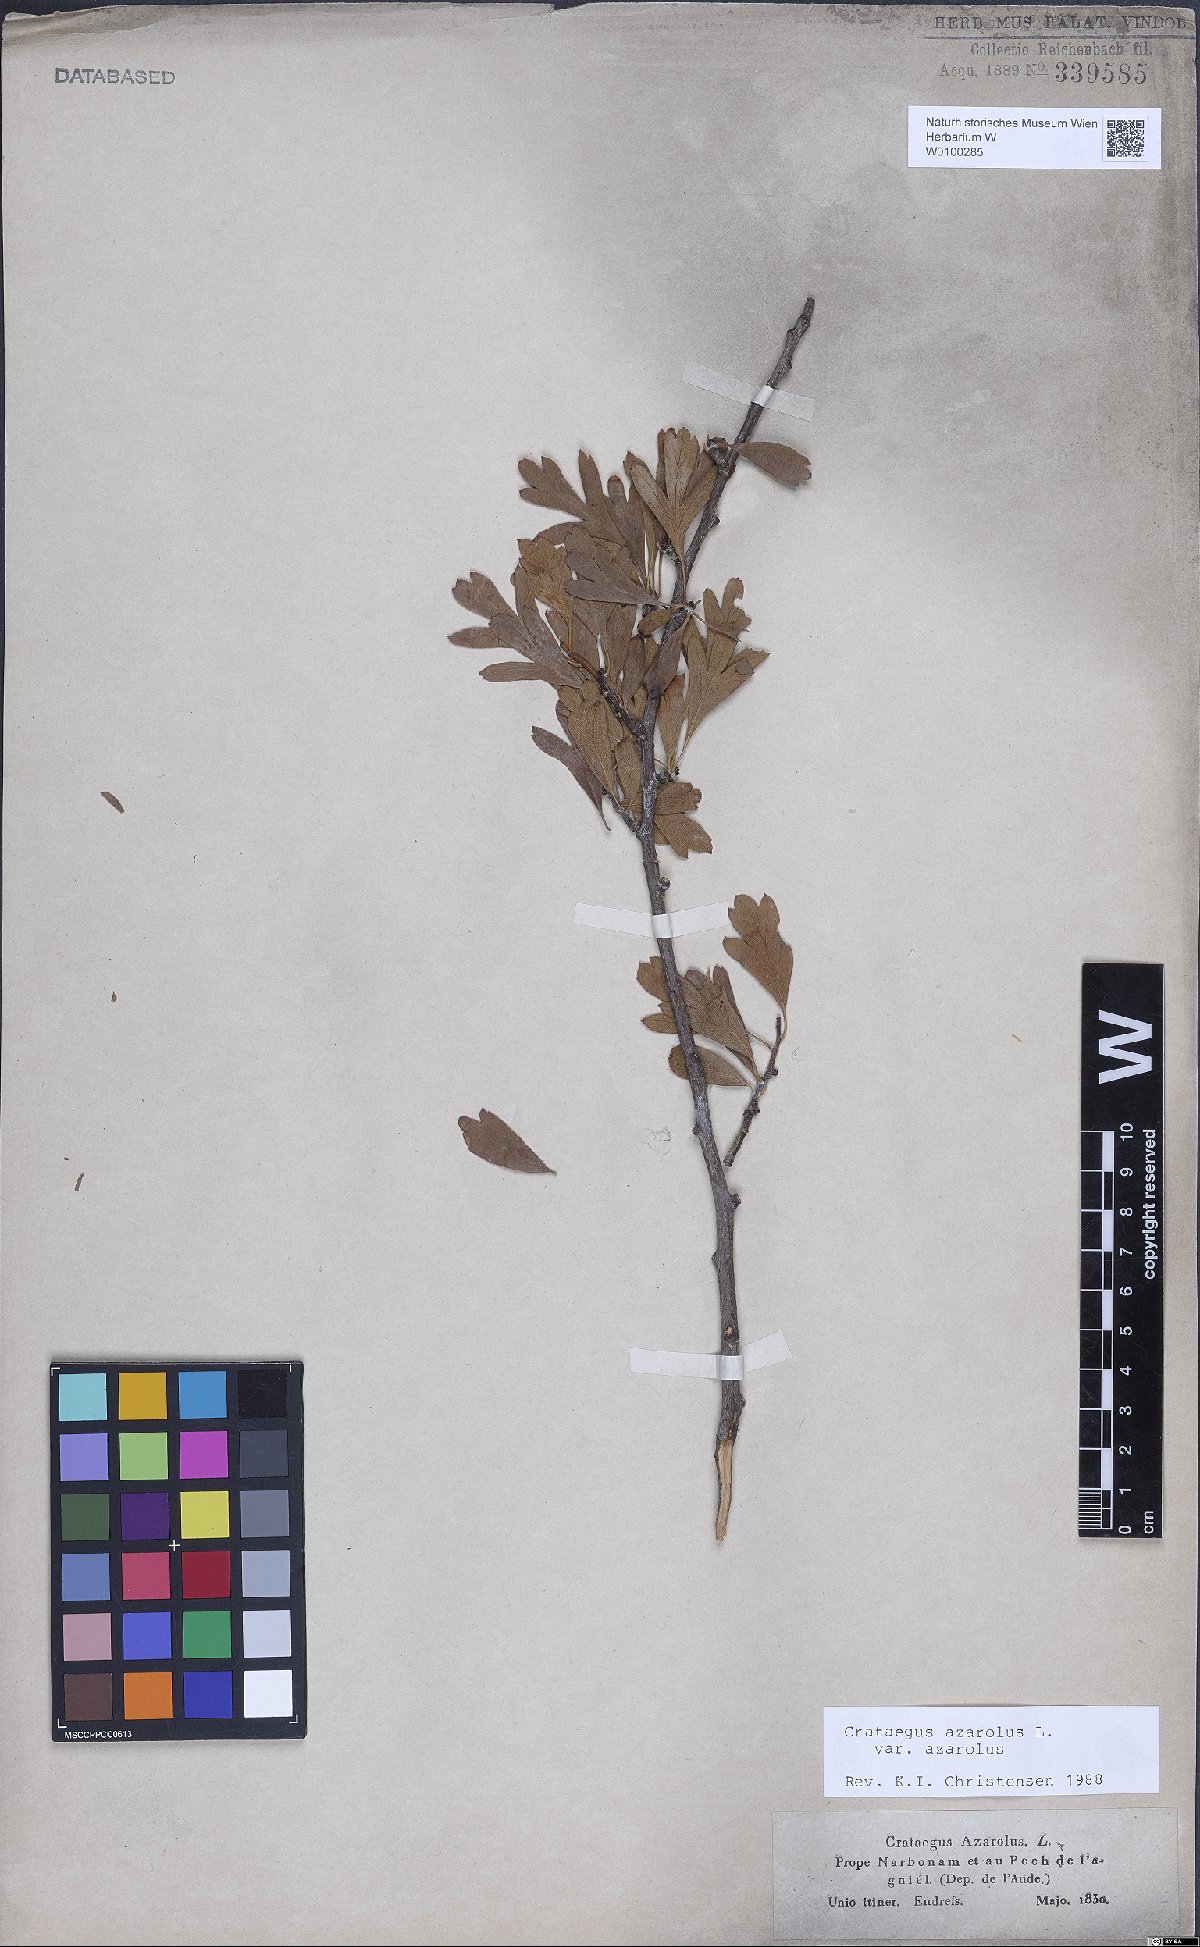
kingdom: Plantae
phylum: Tracheophyta
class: Magnoliopsida
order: Rosales
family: Rosaceae
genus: Crataegus
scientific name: Crataegus azarolus
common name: Azarole
